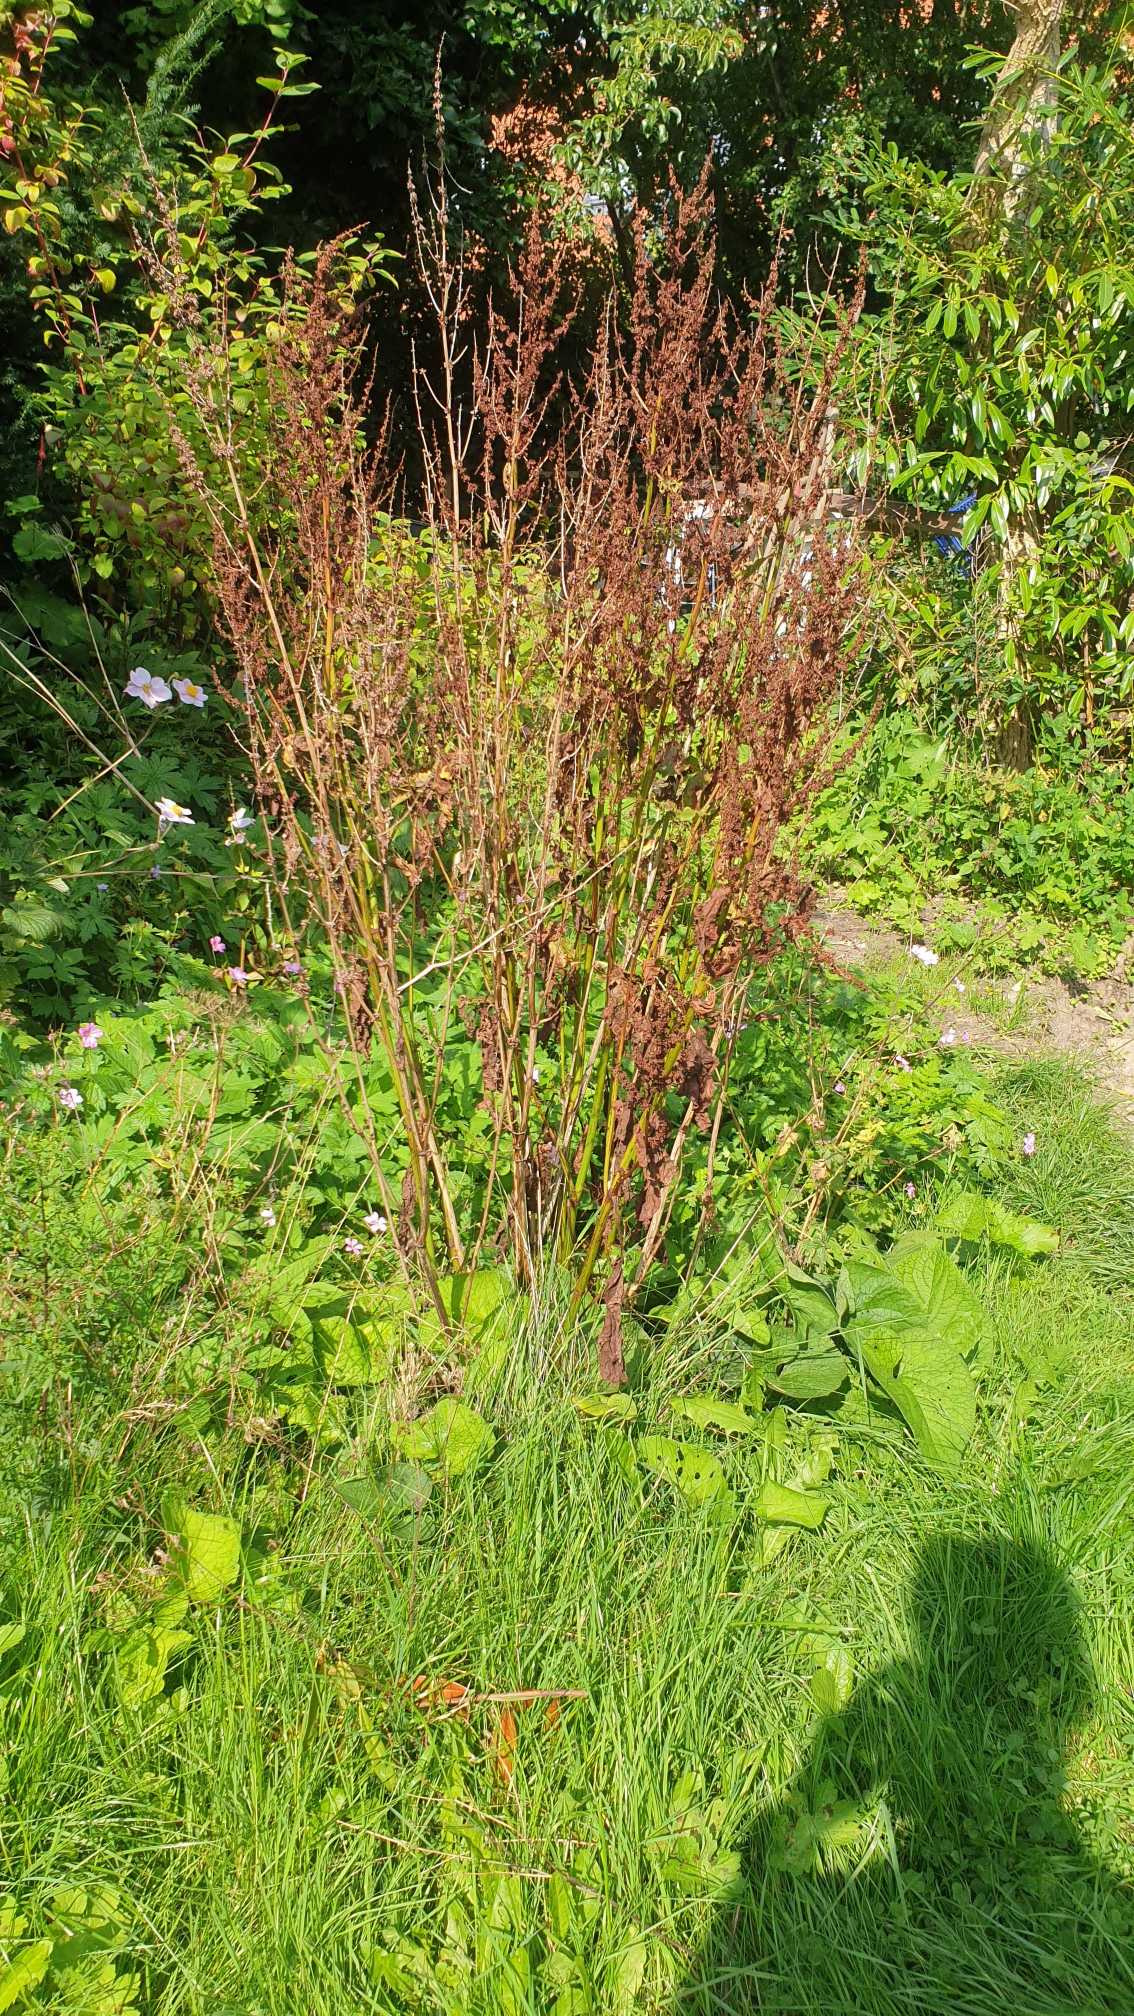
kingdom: Plantae
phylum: Tracheophyta
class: Magnoliopsida
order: Caryophyllales
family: Polygonaceae
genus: Rumex
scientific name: Rumex obtusifolius
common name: Butbladet skræppe
